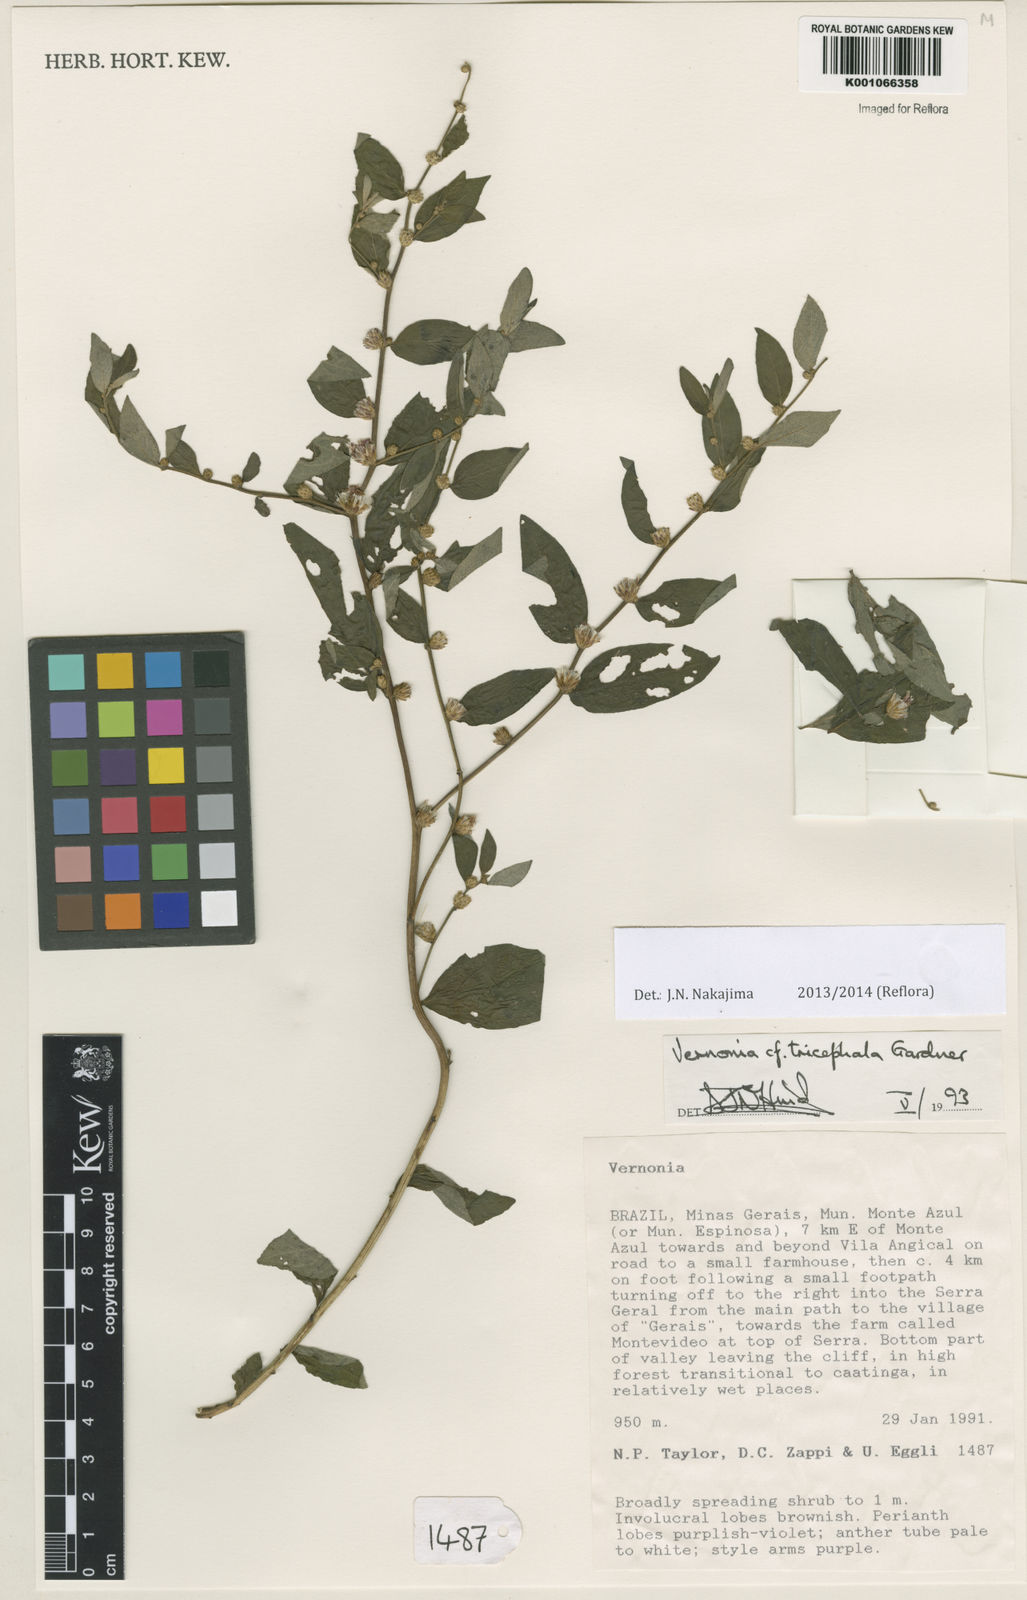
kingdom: Plantae
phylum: Tracheophyta
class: Magnoliopsida
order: Asterales
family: Asteraceae
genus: Lepidaploa
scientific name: Lepidaploa rufogrisea
